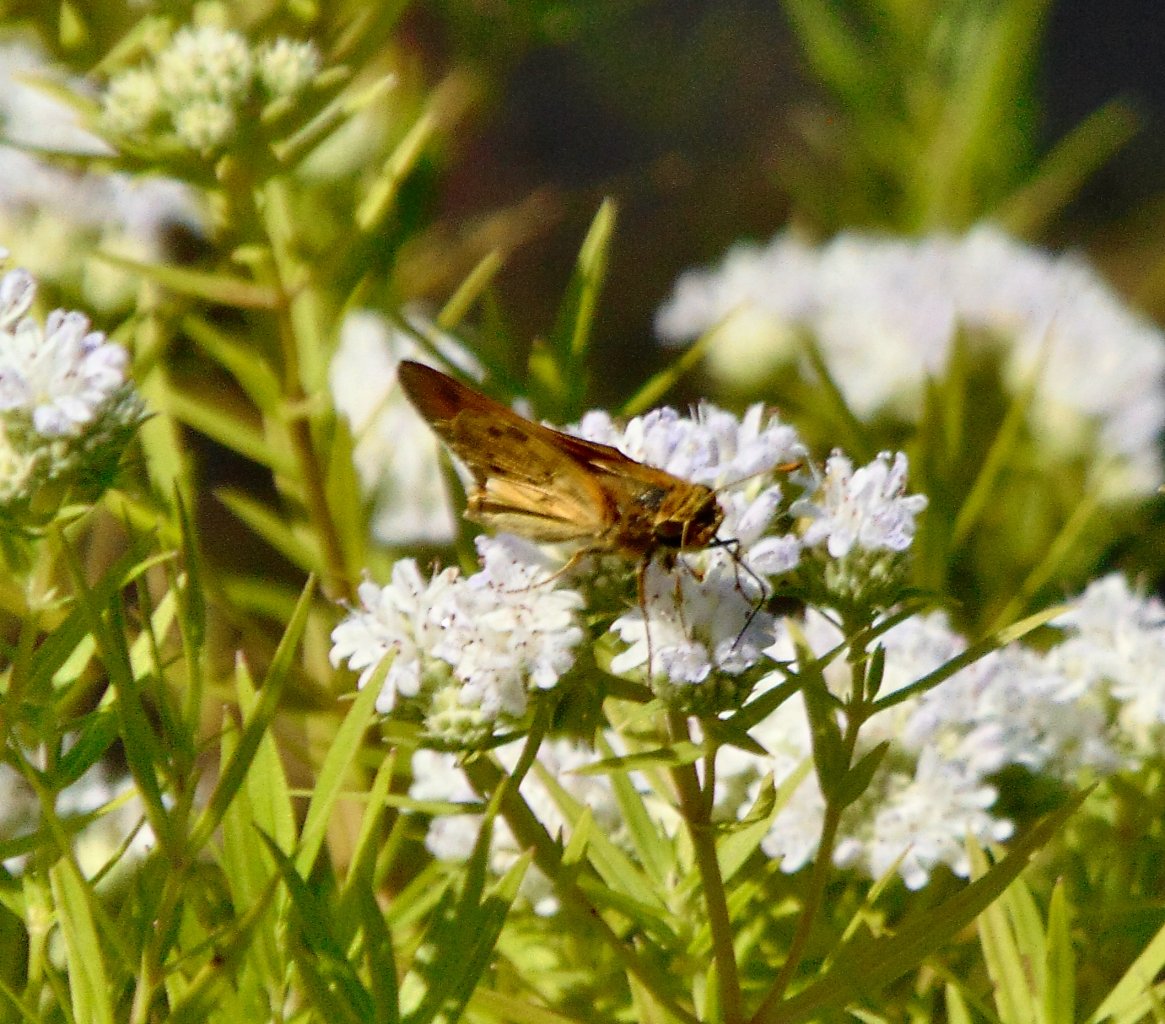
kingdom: Animalia
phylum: Arthropoda
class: Insecta
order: Lepidoptera
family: Hesperiidae
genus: Hylephila
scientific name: Hylephila phyleus
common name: Fiery Skipper
